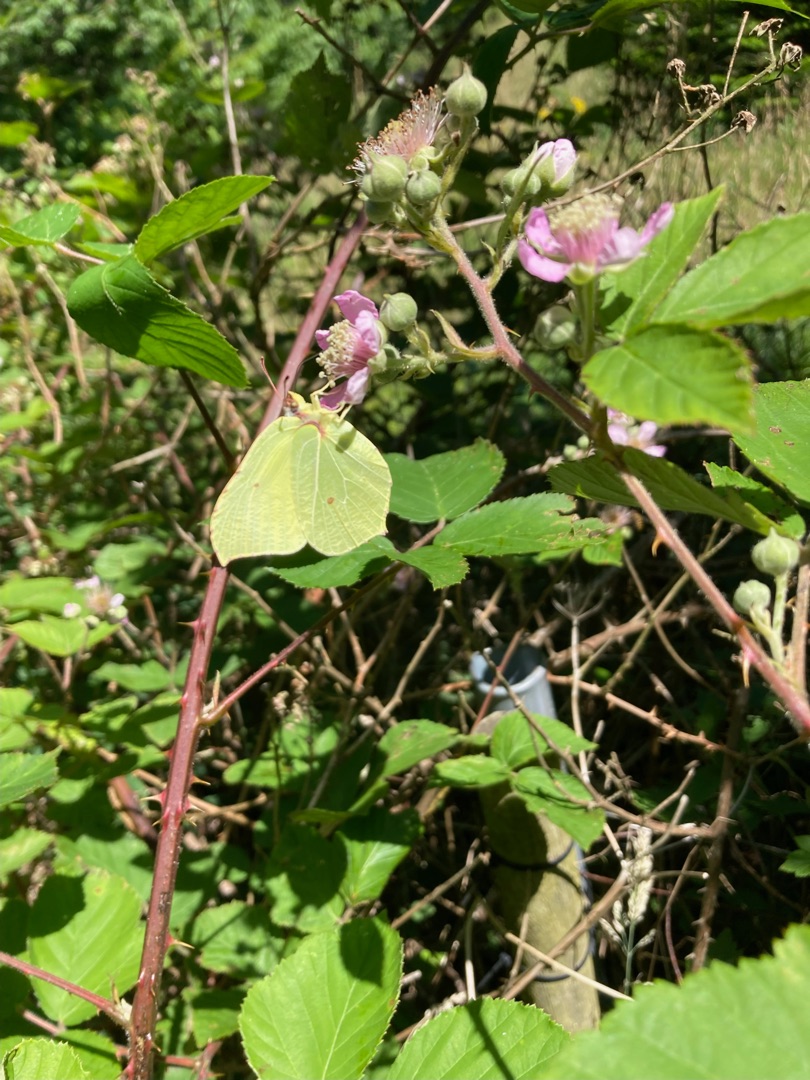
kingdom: Animalia
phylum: Arthropoda
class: Insecta
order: Lepidoptera
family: Pieridae
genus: Gonepteryx
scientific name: Gonepteryx rhamni
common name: Citronsommerfugl
